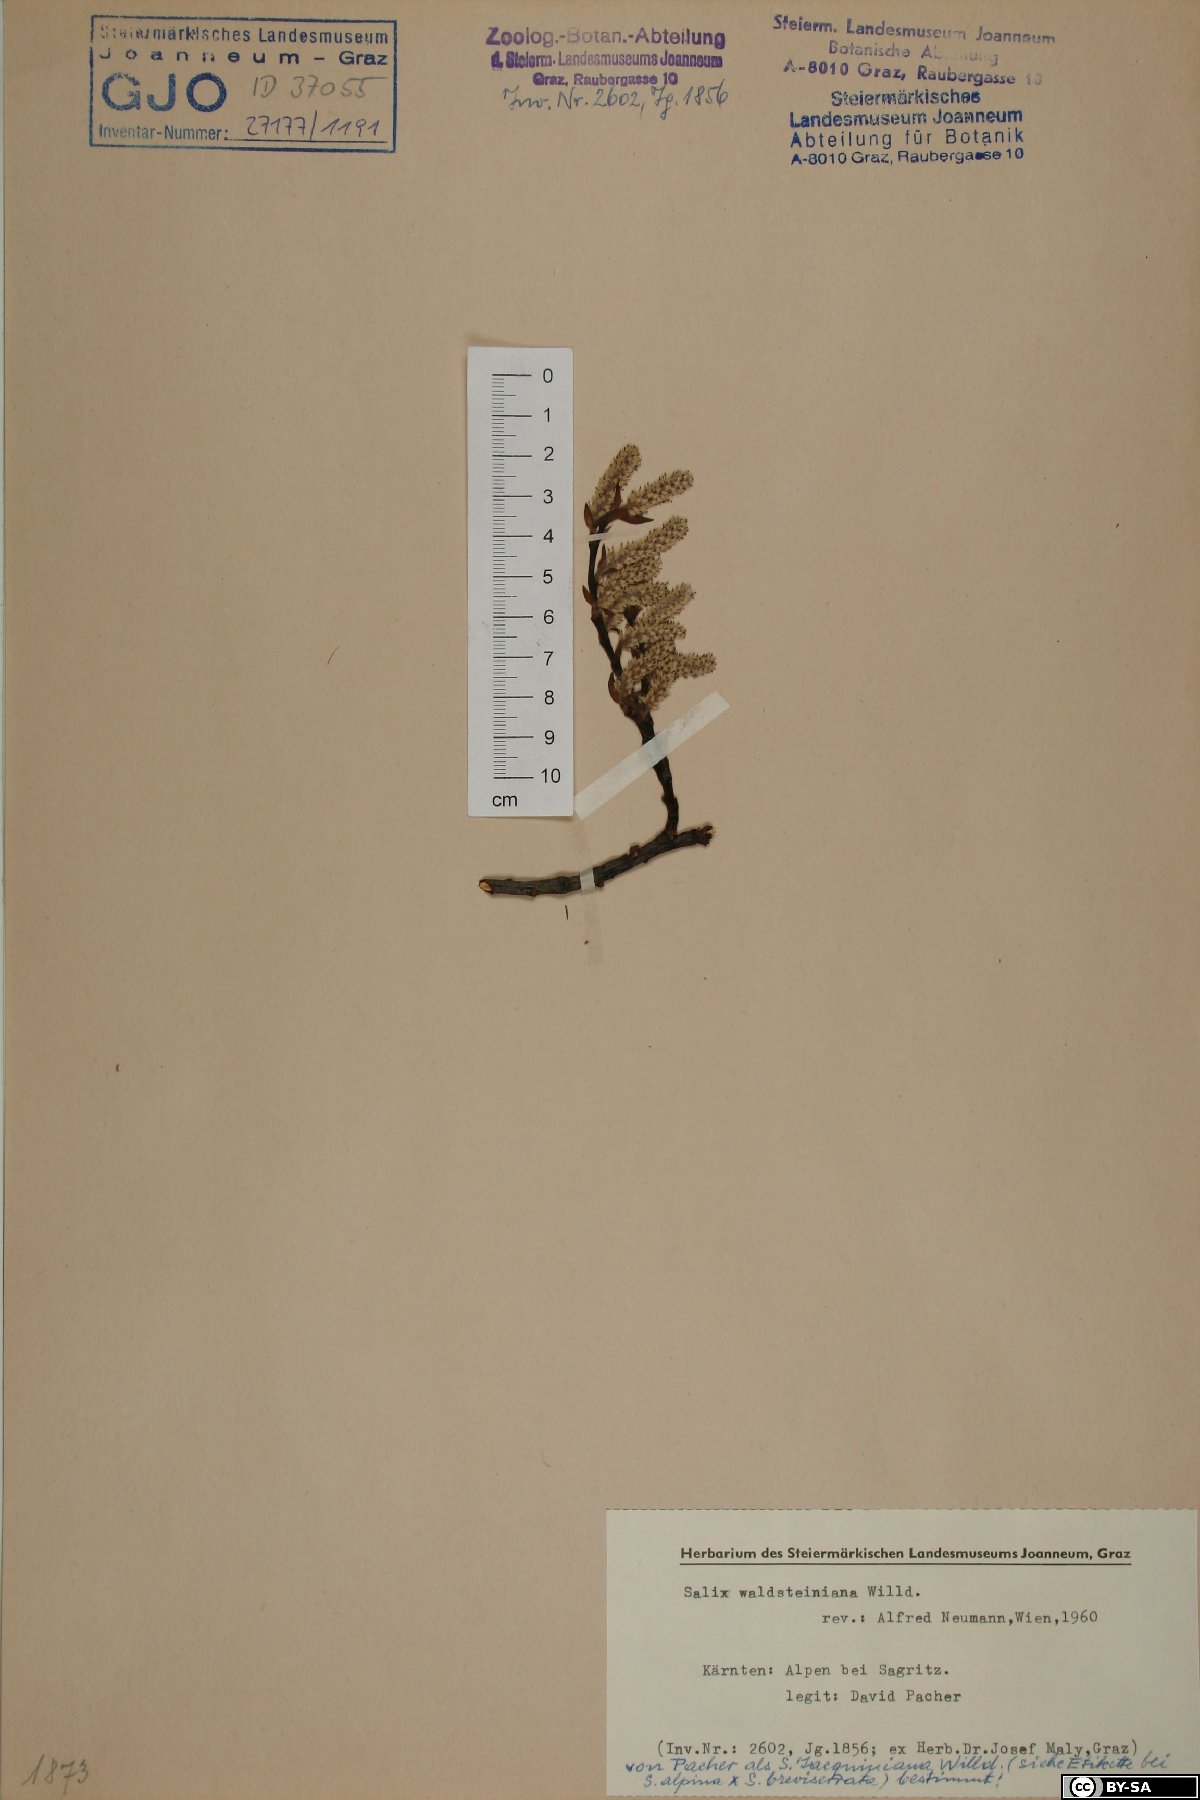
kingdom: Plantae
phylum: Tracheophyta
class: Magnoliopsida
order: Malpighiales
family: Salicaceae
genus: Salix
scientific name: Salix waldsteiniana
